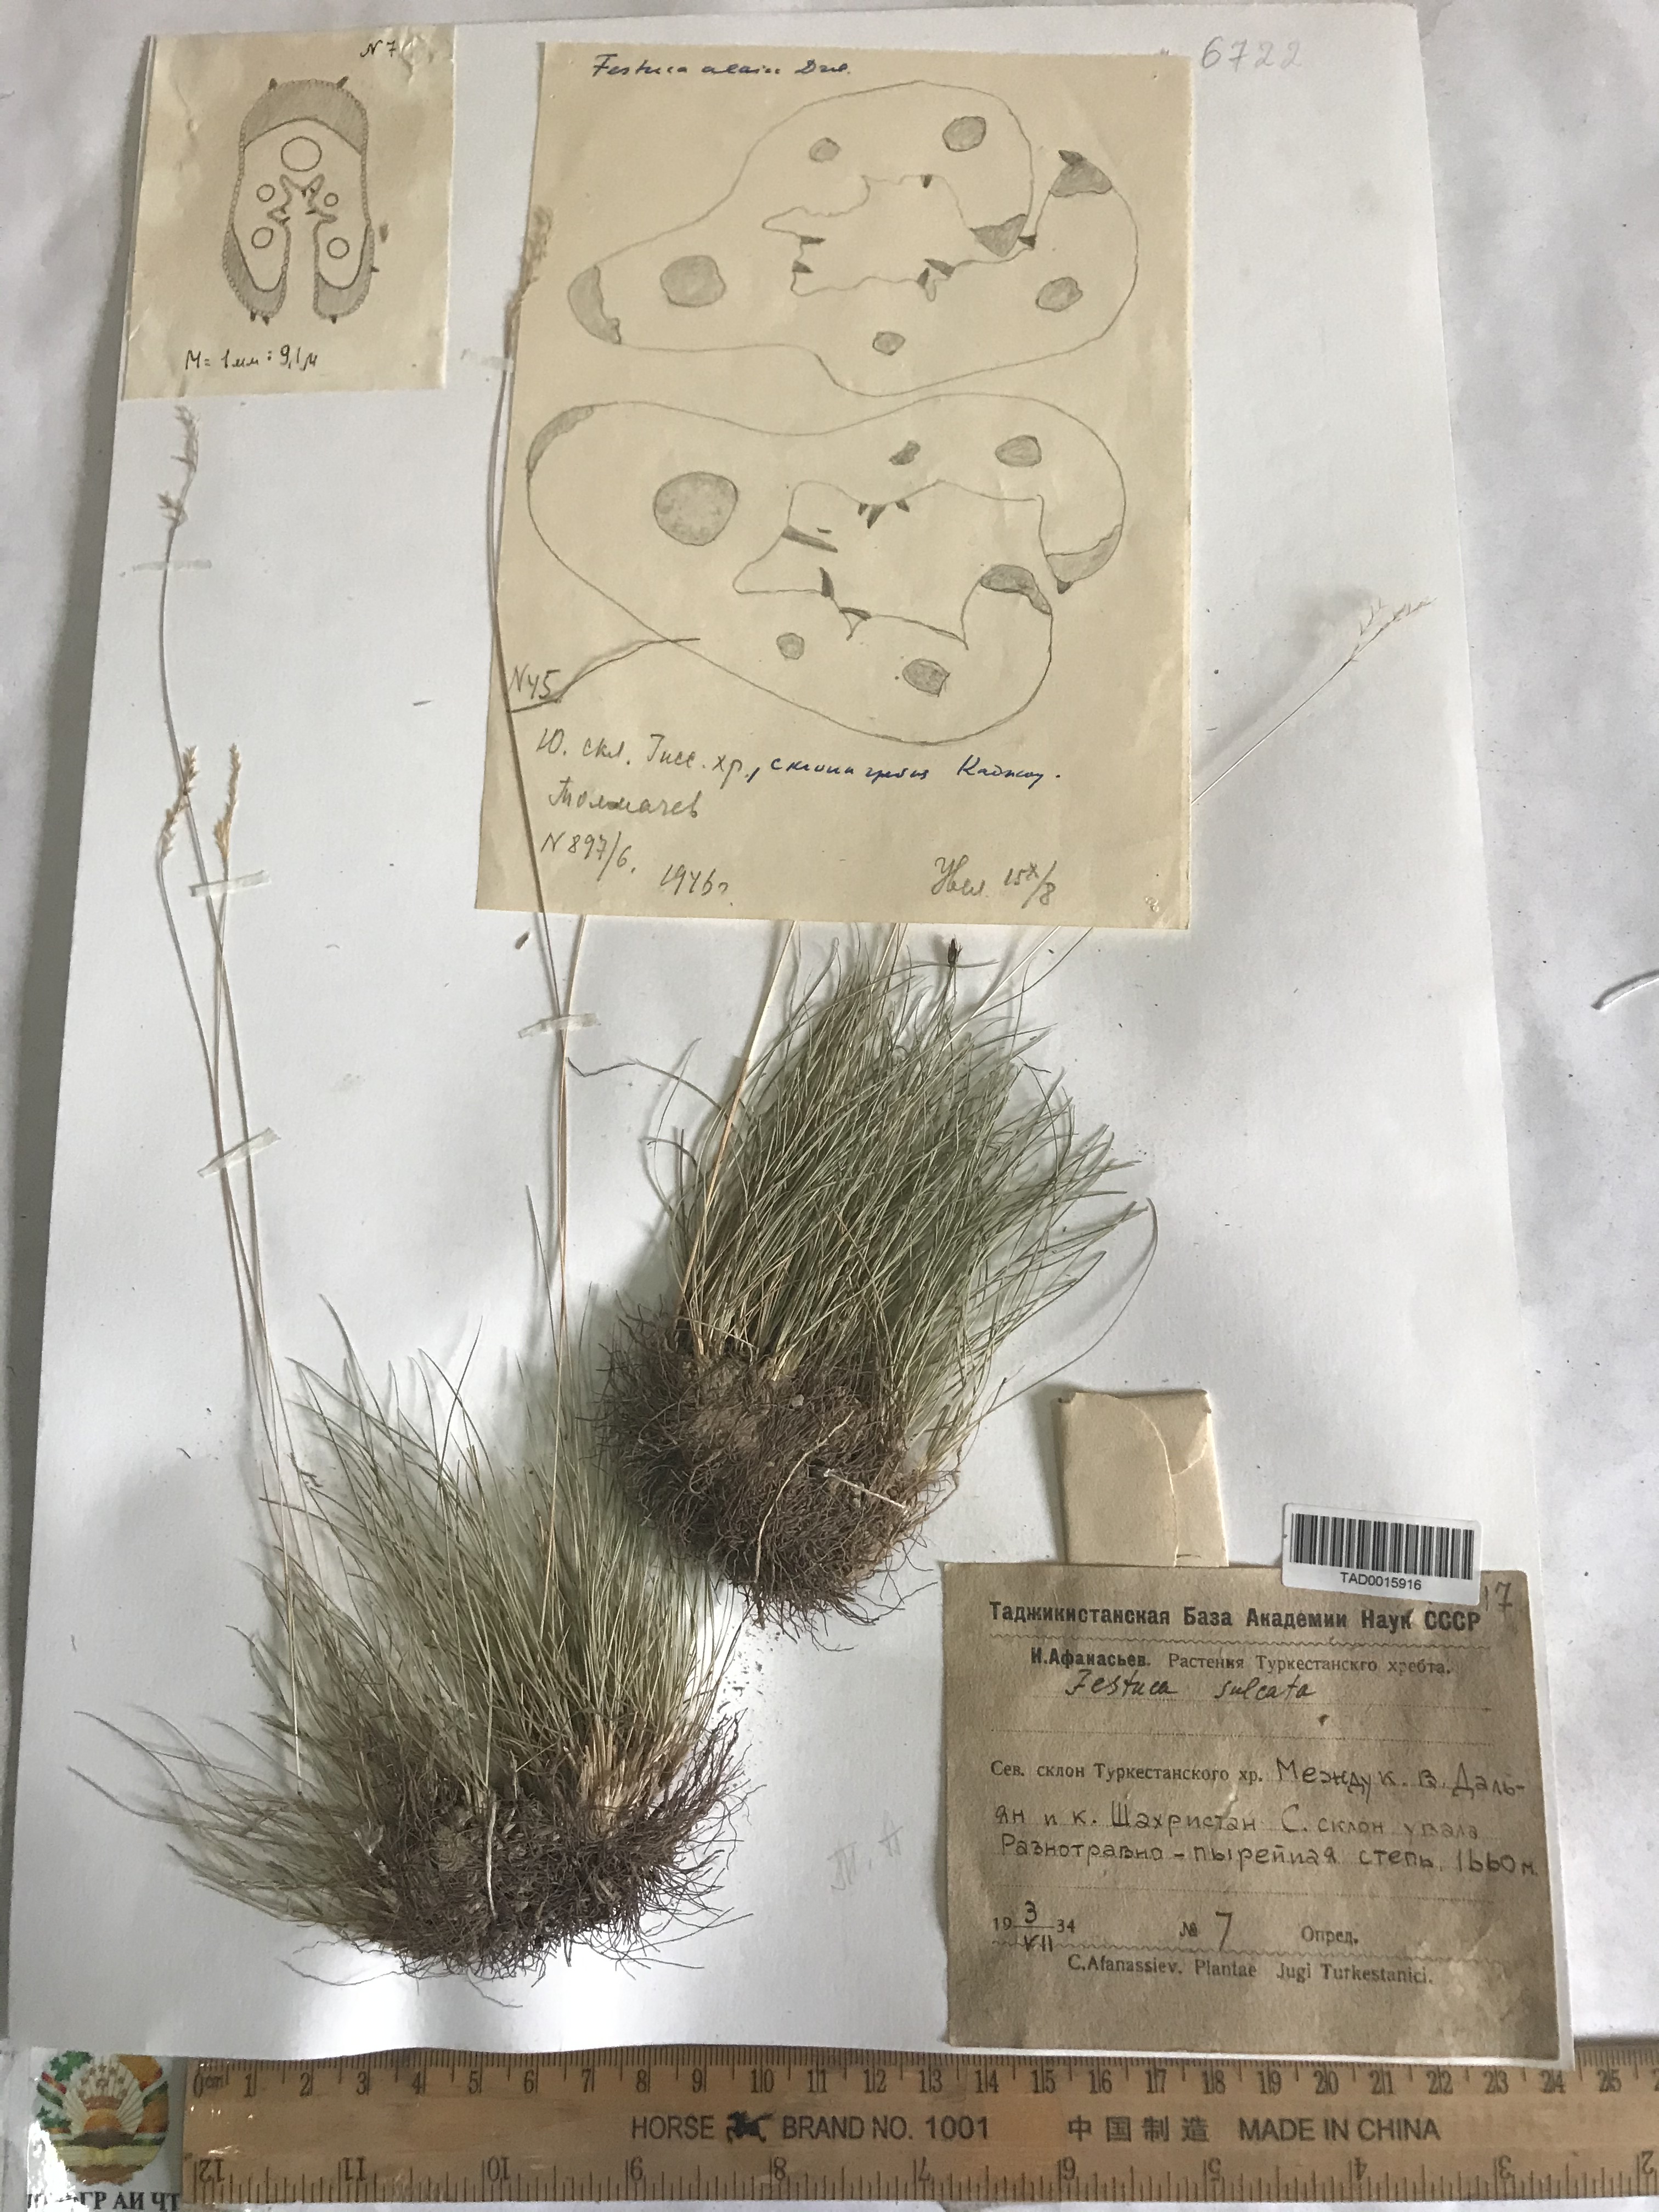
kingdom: Plantae
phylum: Tracheophyta
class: Liliopsida
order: Poales
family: Poaceae
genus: Festuca
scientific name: Festuca sulcata
